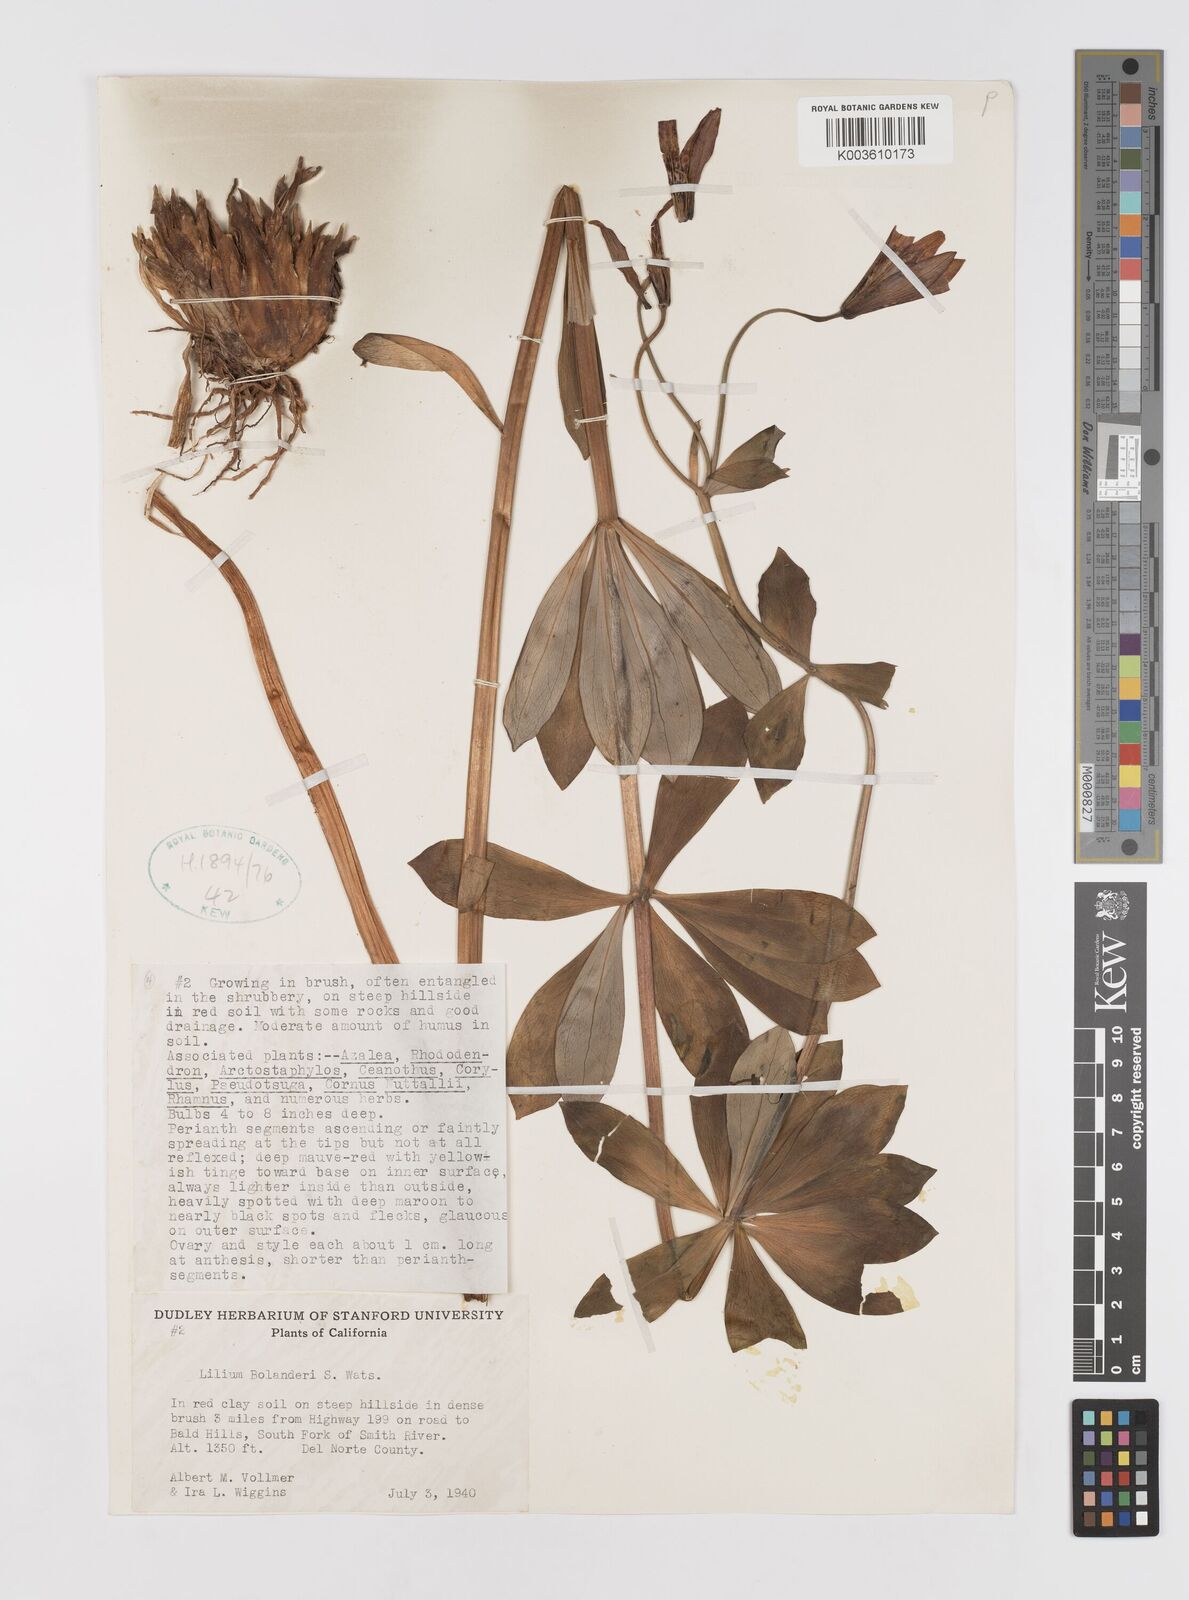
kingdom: Plantae
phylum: Tracheophyta
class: Liliopsida
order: Liliales
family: Liliaceae
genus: Lilium
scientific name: Lilium bolanderi
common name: Bolander's lily
